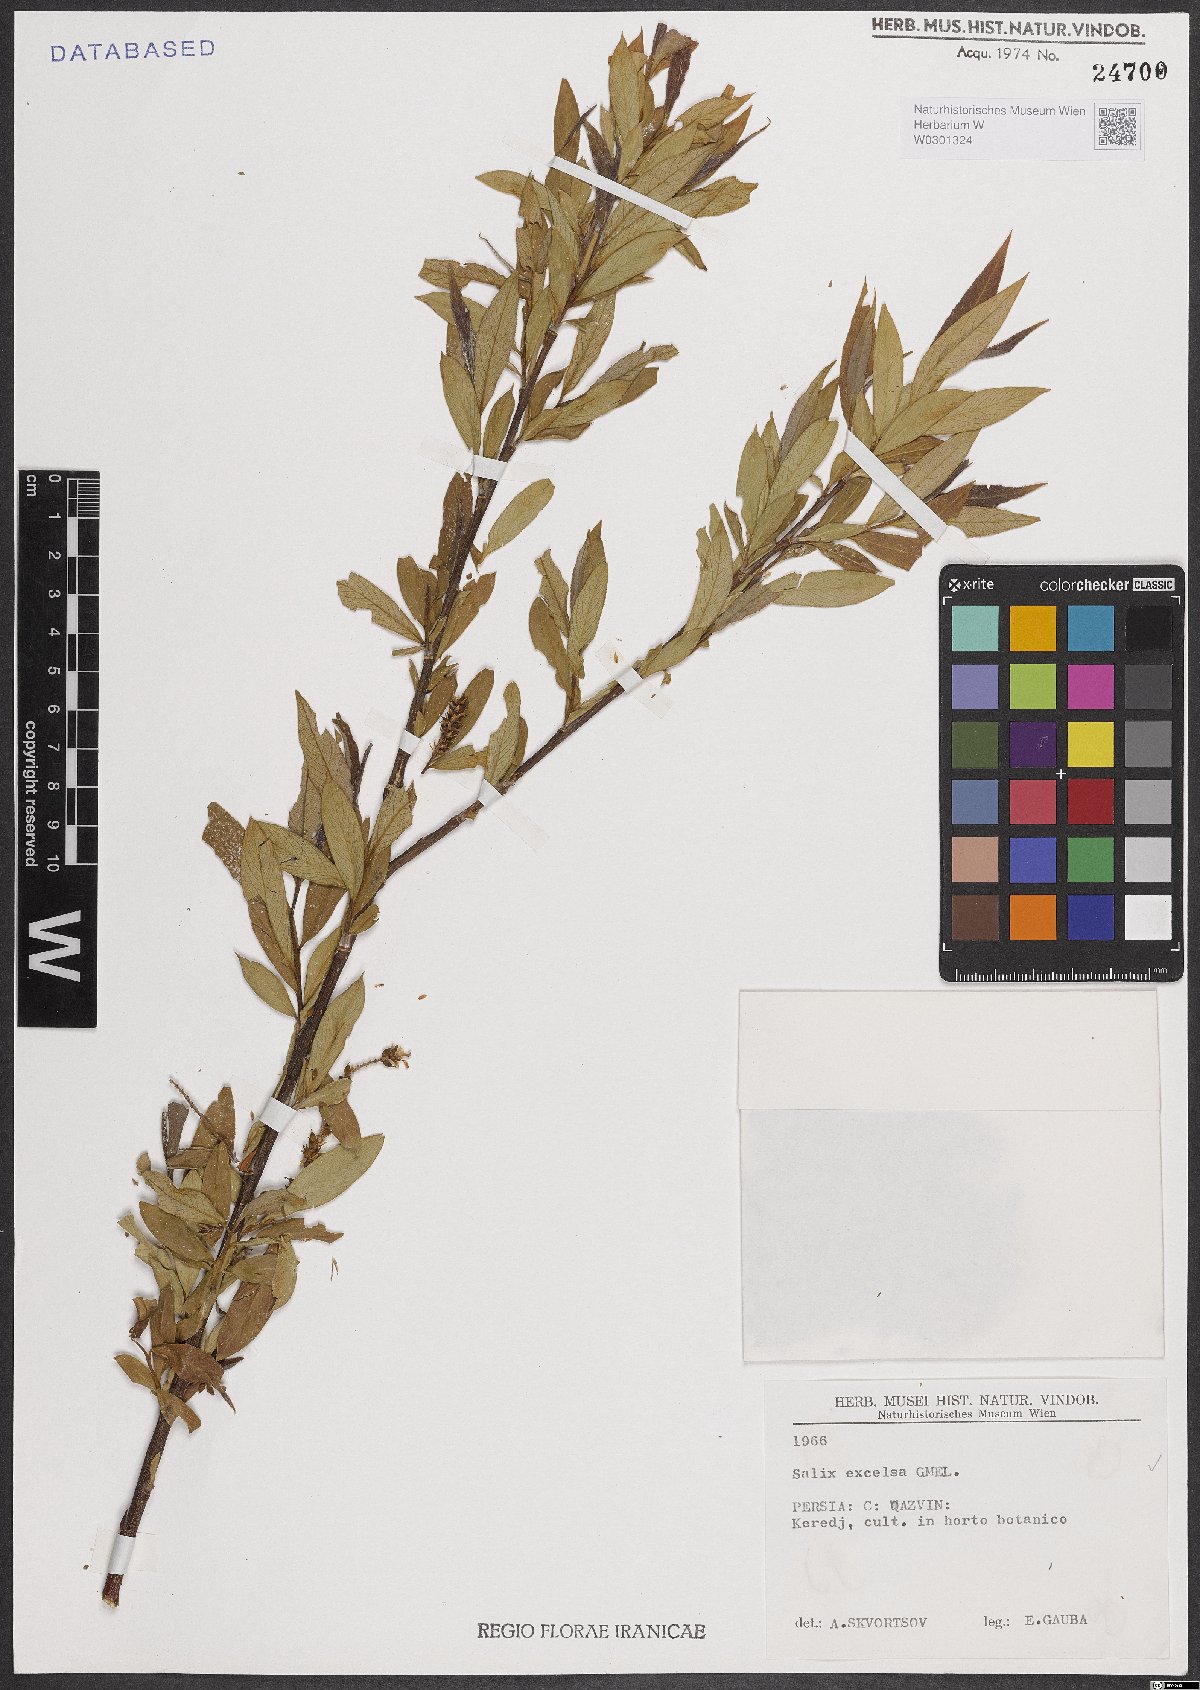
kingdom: Plantae
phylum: Tracheophyta
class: Magnoliopsida
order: Malpighiales
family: Salicaceae
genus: Salix
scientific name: Salix excelsa
